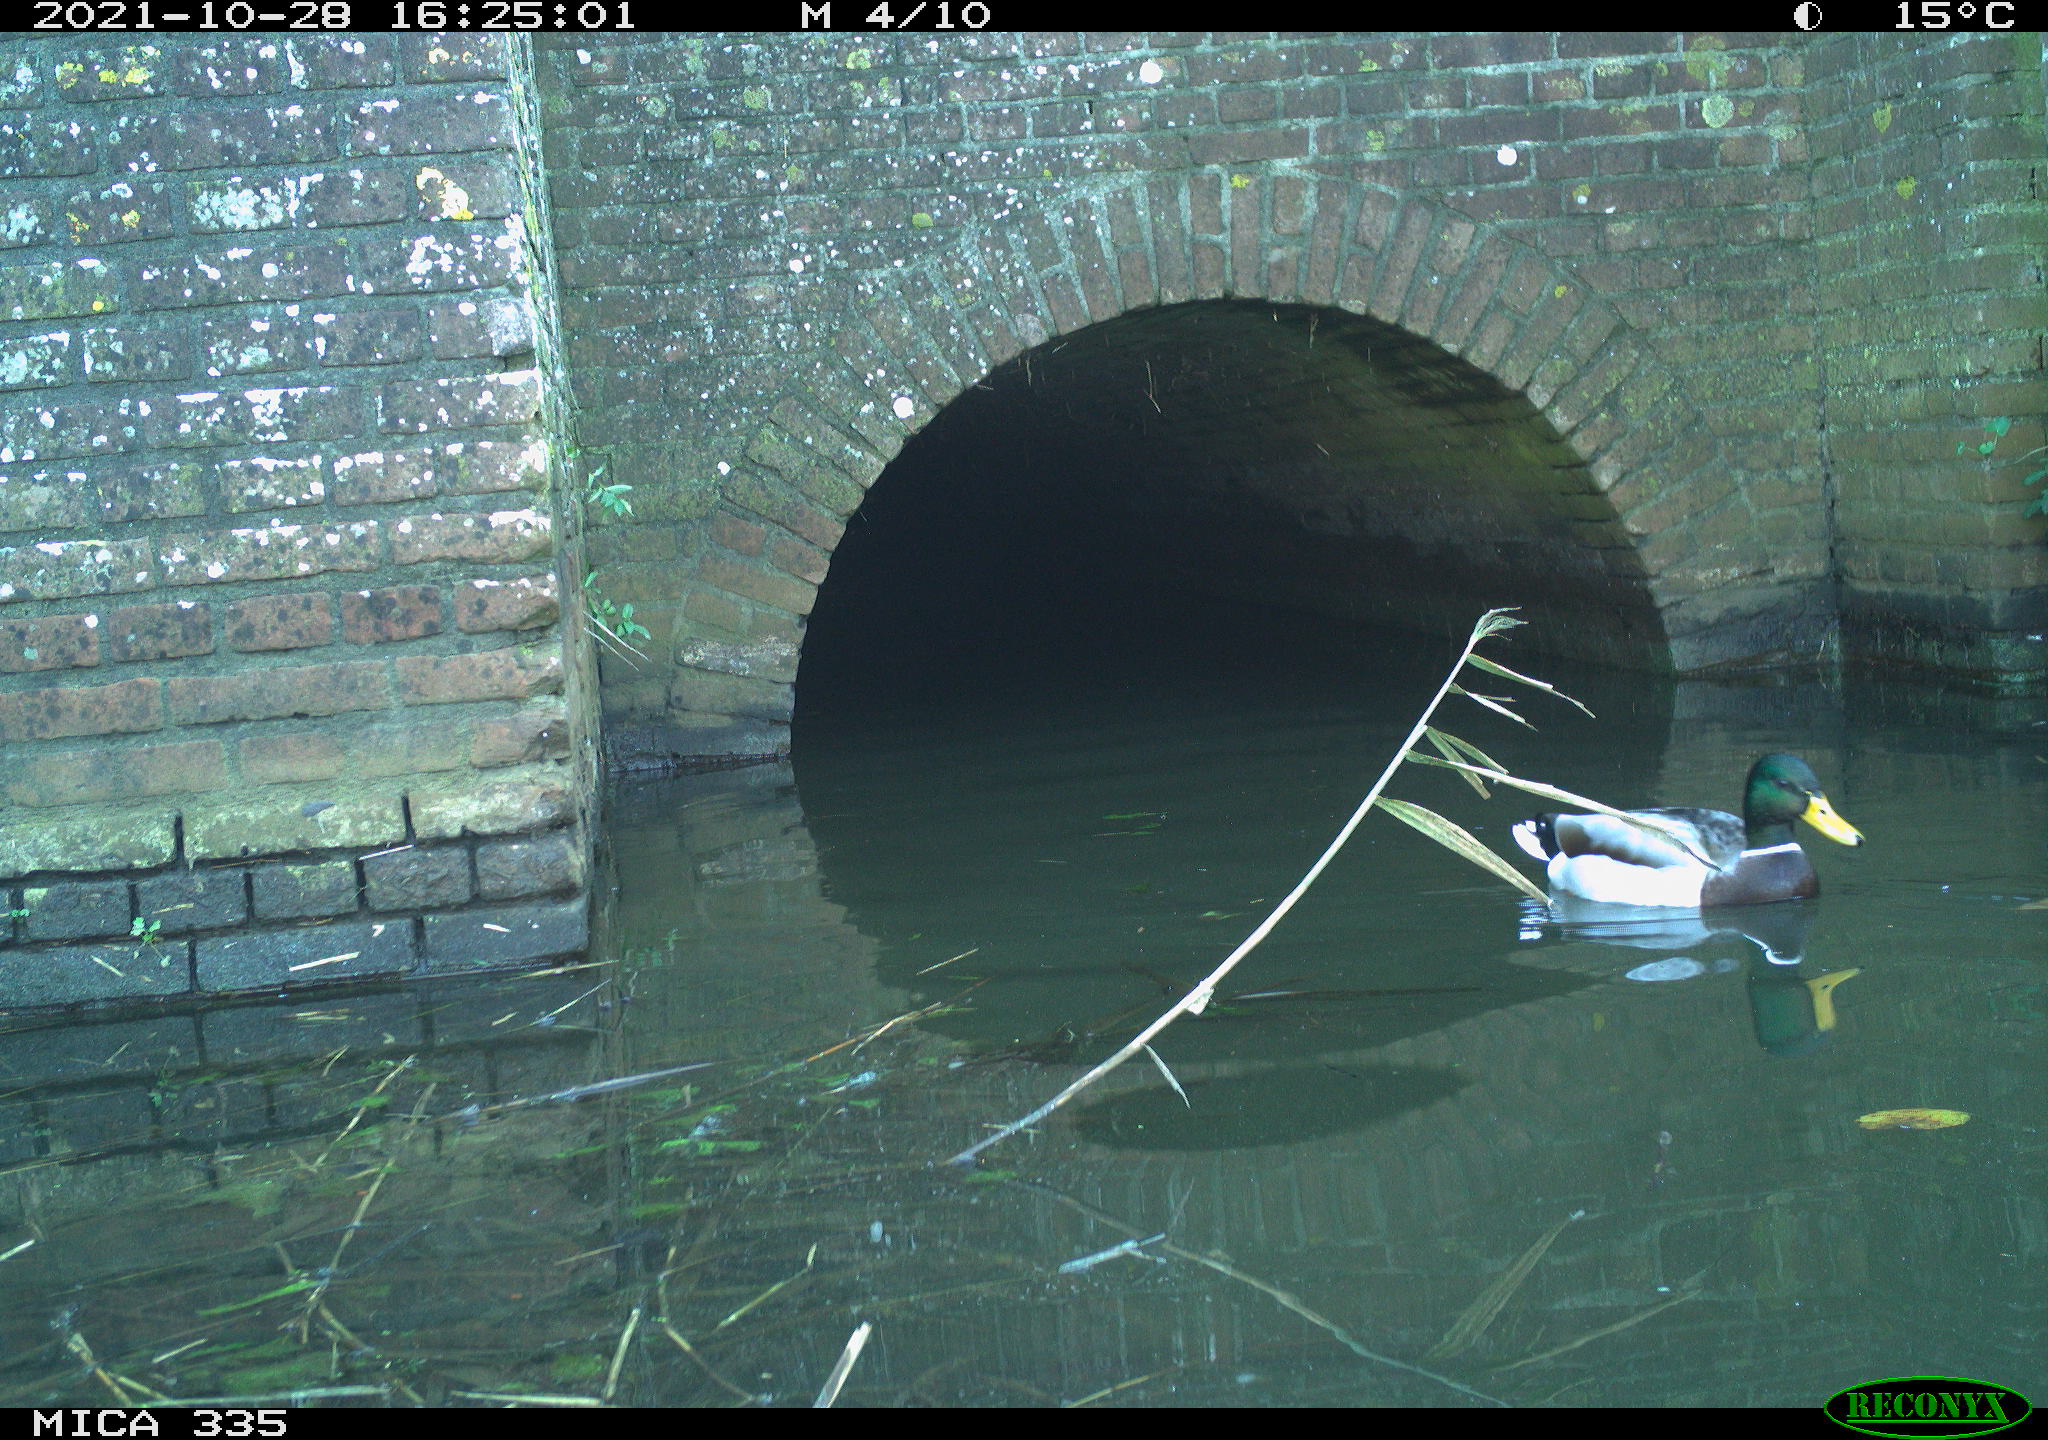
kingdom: Animalia
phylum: Chordata
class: Aves
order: Anseriformes
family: Anatidae
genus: Anas
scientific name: Anas platyrhynchos
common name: Mallard
